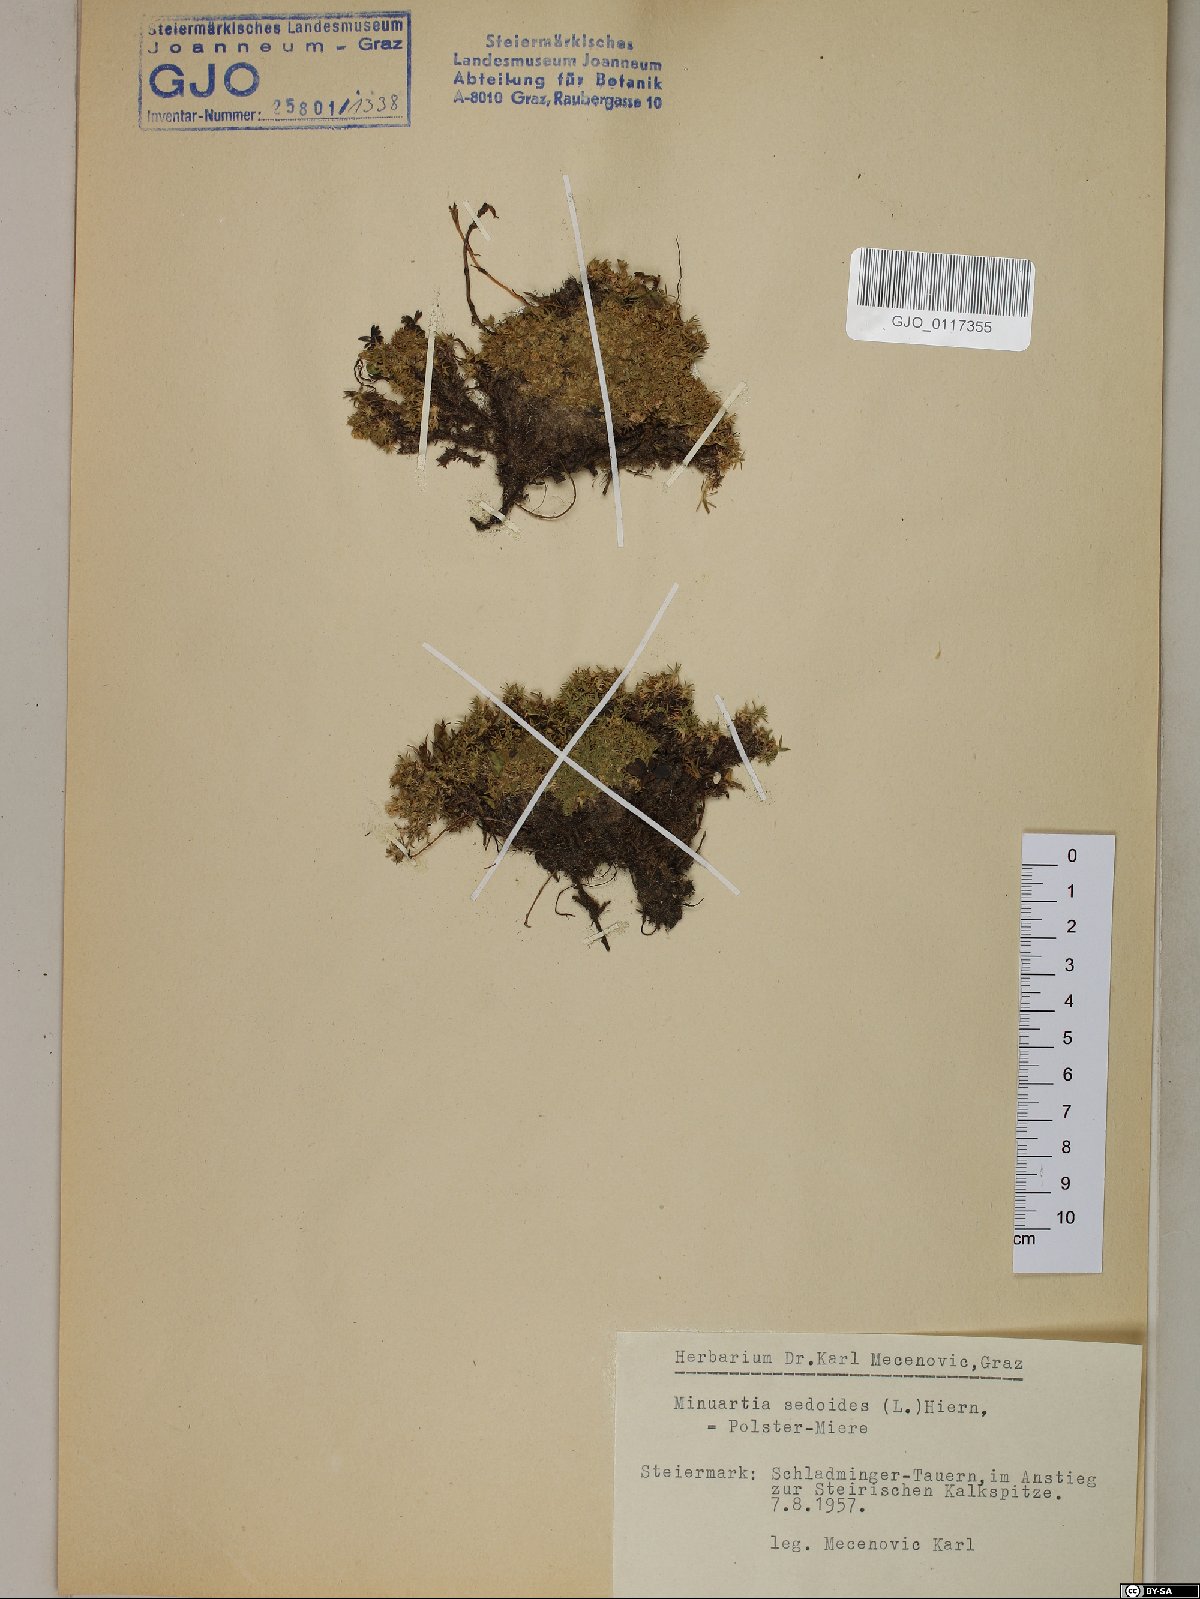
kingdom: Plantae
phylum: Tracheophyta
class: Magnoliopsida
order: Caryophyllales
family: Caryophyllaceae
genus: Cherleria
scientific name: Cherleria sedoides
